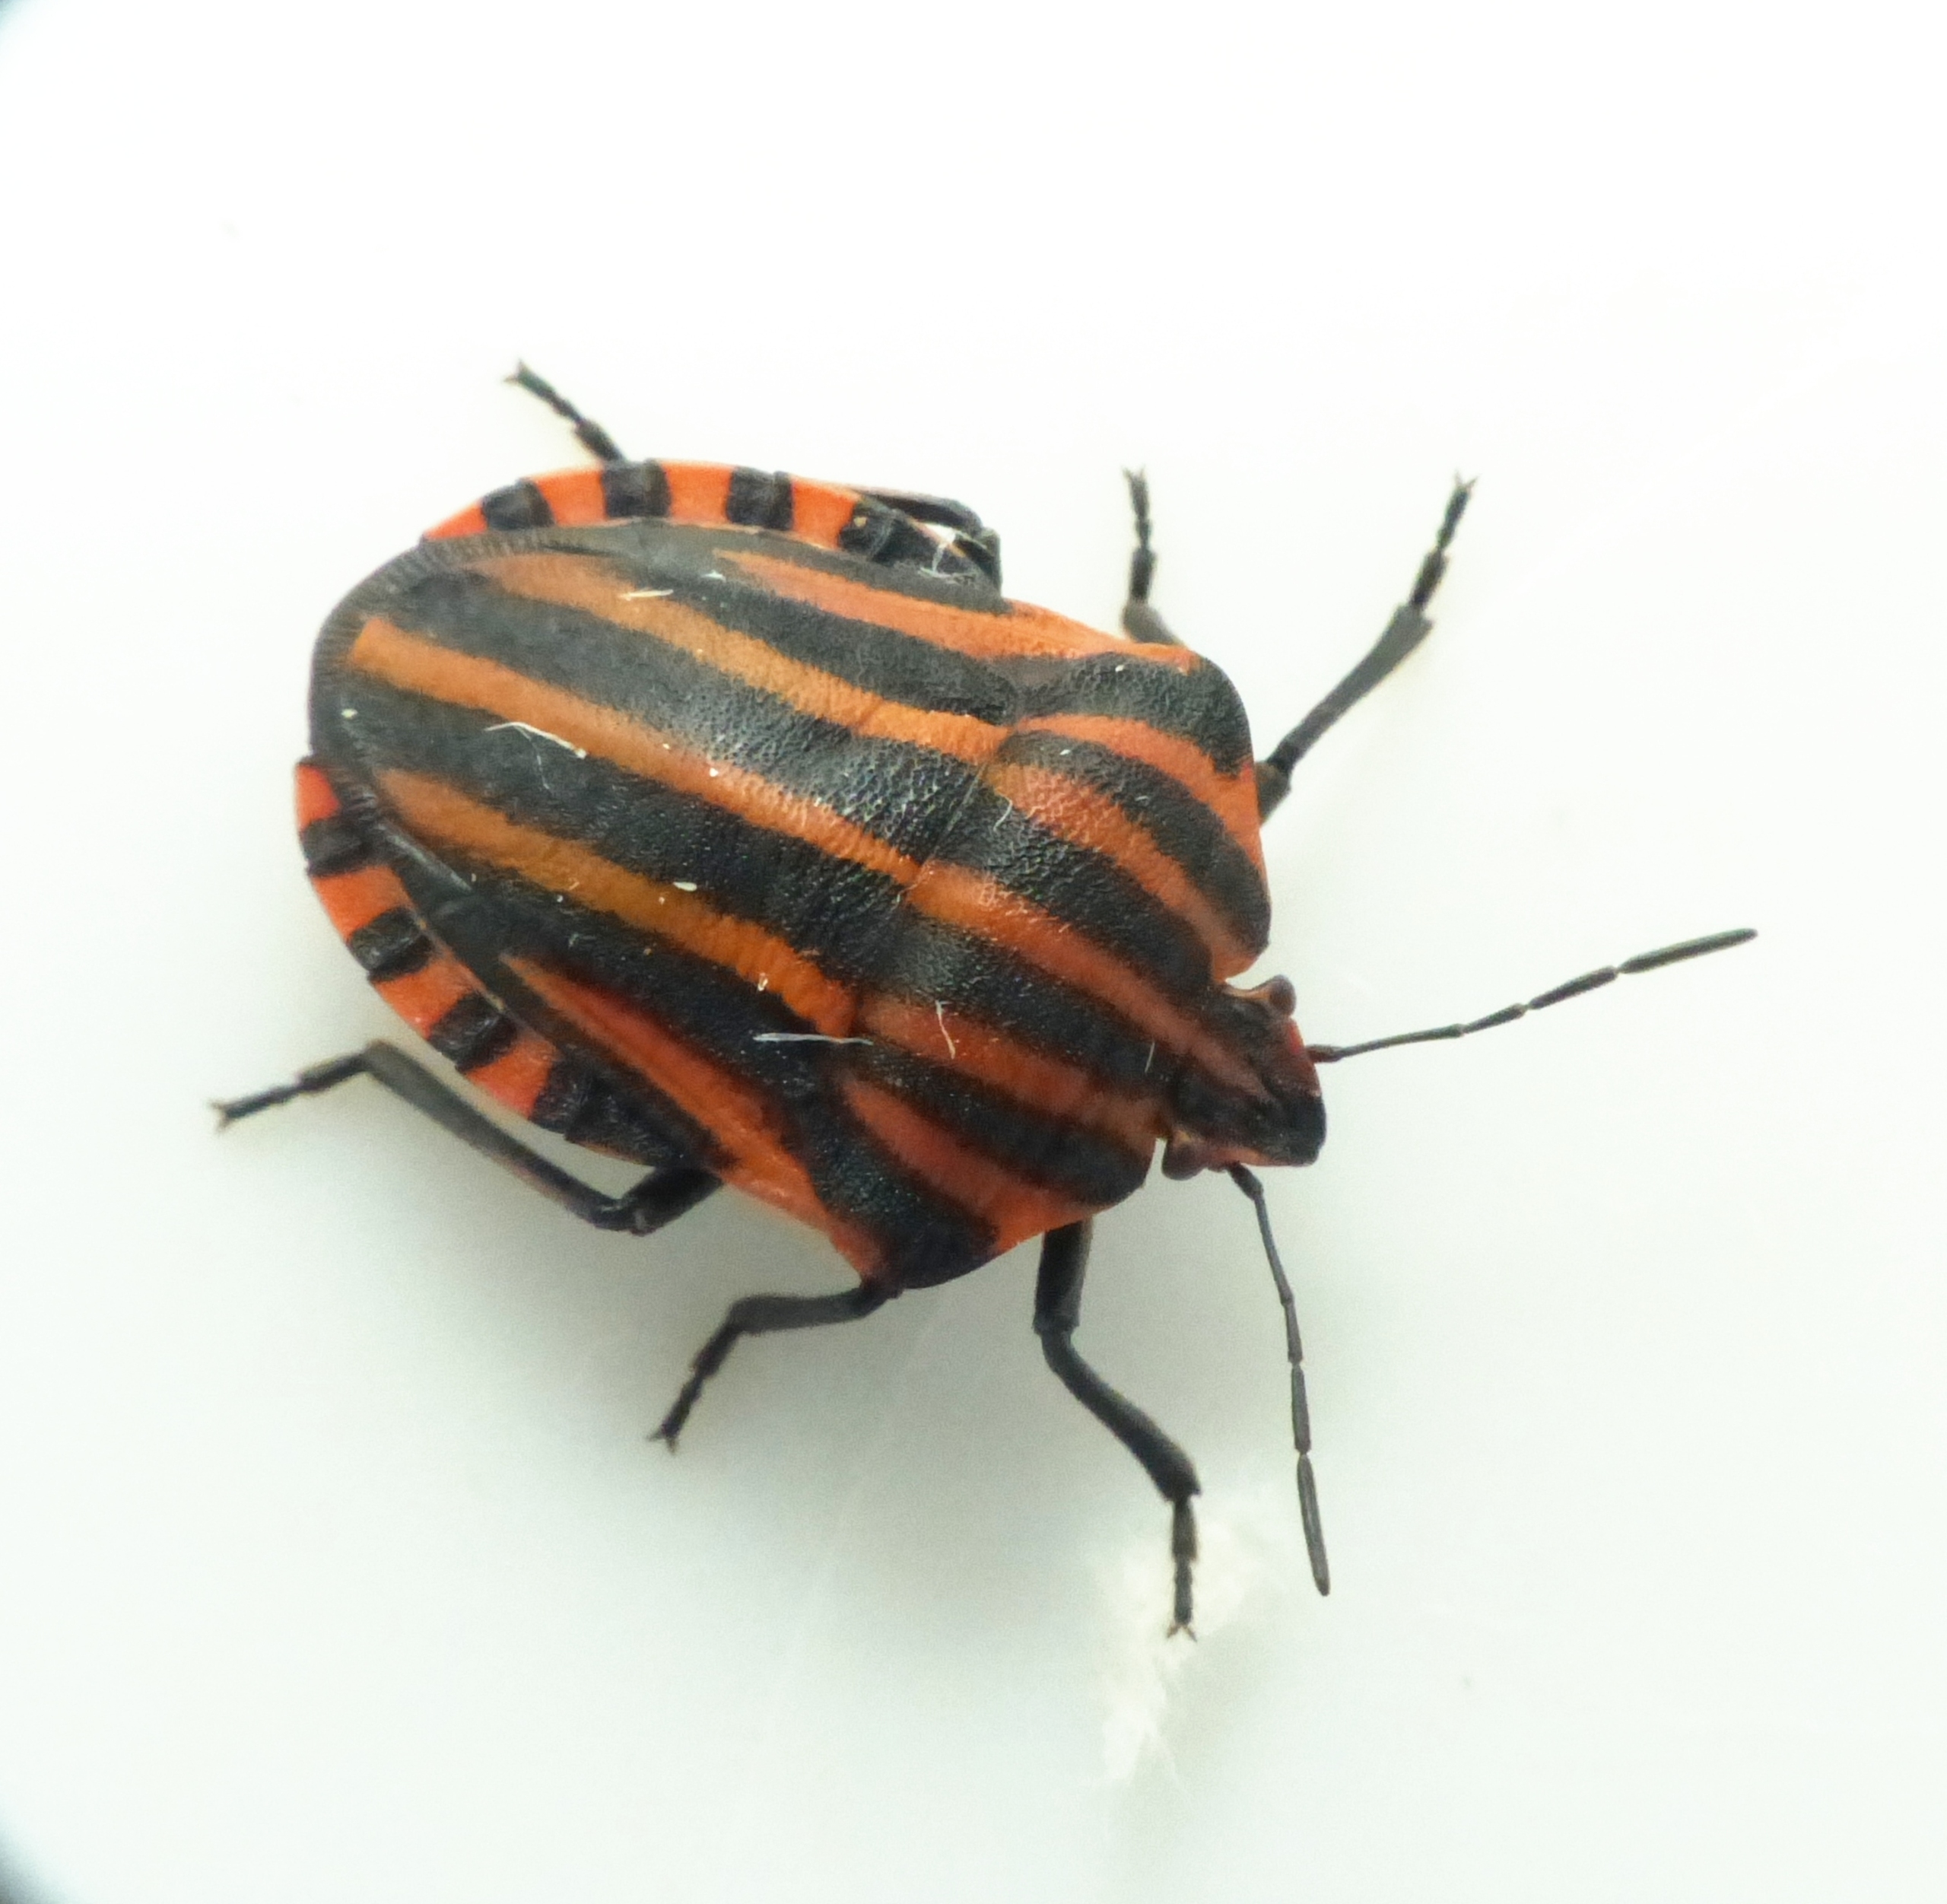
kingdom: Animalia
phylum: Arthropoda
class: Insecta
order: Hemiptera
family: Pentatomidae
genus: Graphosoma
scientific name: Graphosoma italicum
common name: Stribetæge
